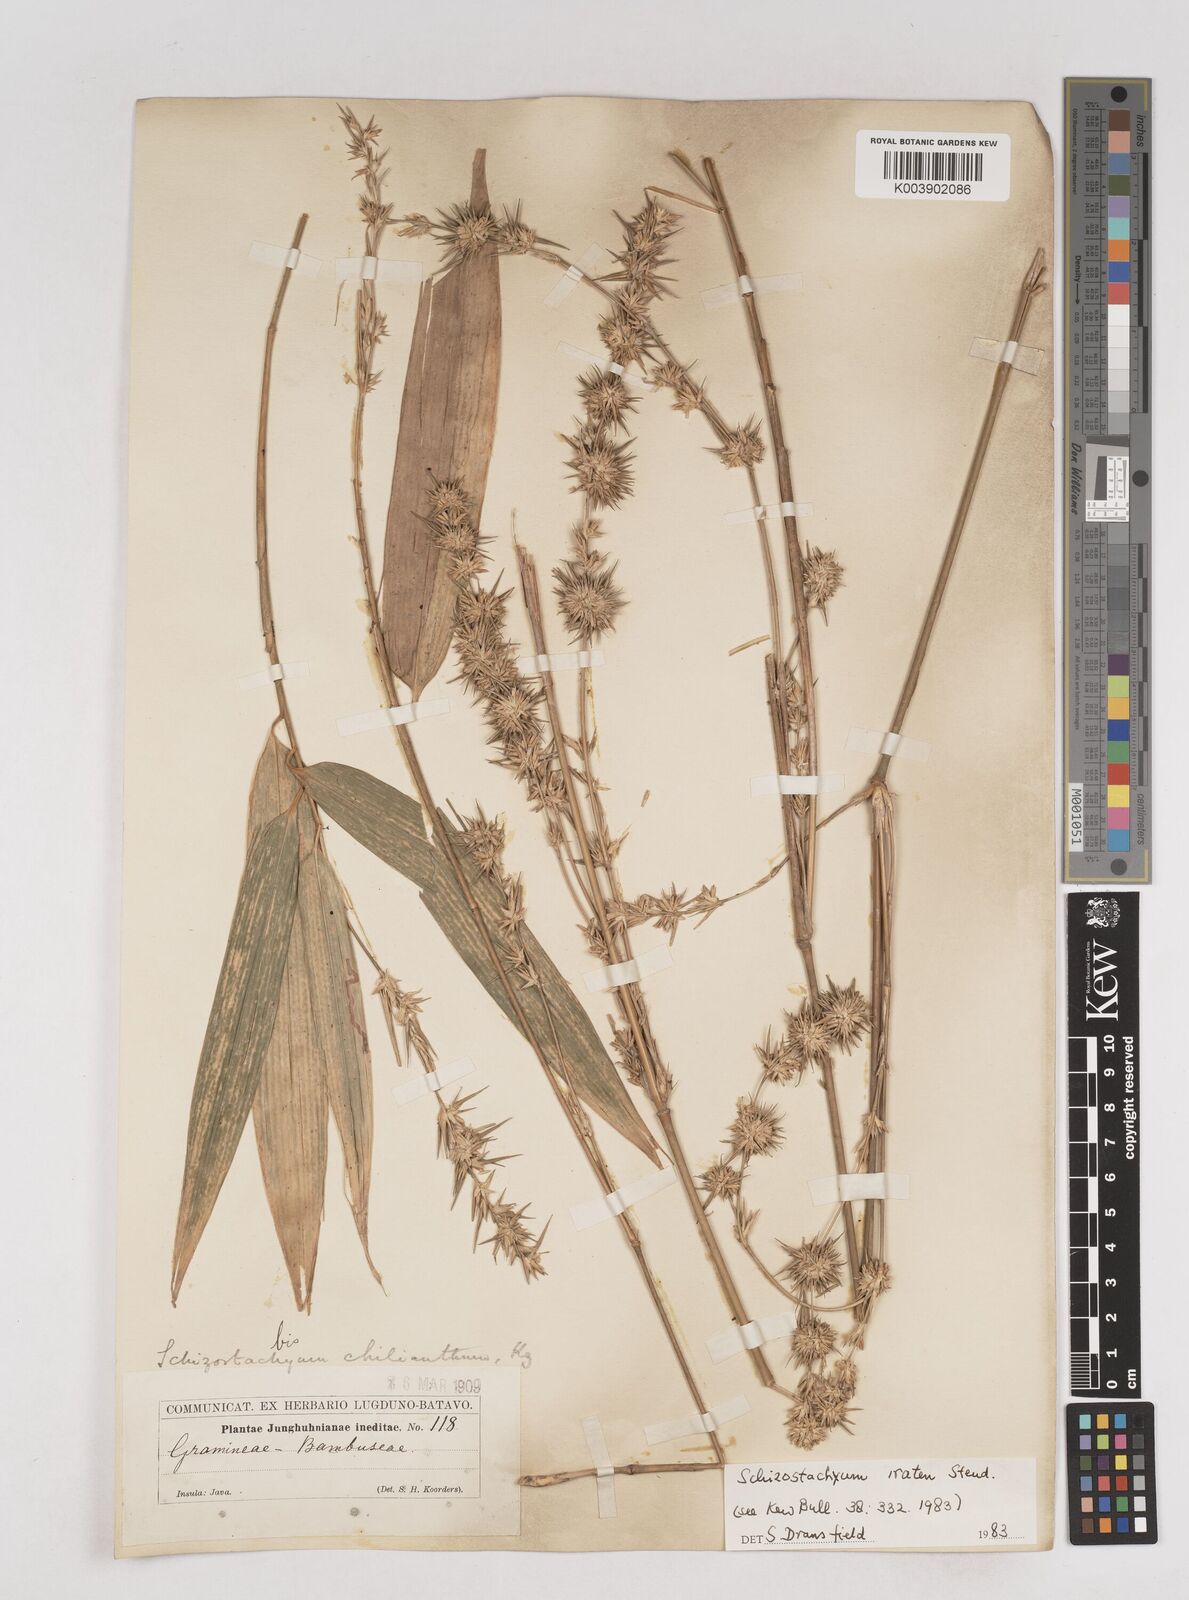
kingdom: Plantae
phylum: Tracheophyta
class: Liliopsida
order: Poales
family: Poaceae
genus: Schizostachyum
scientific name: Schizostachyum iraten
